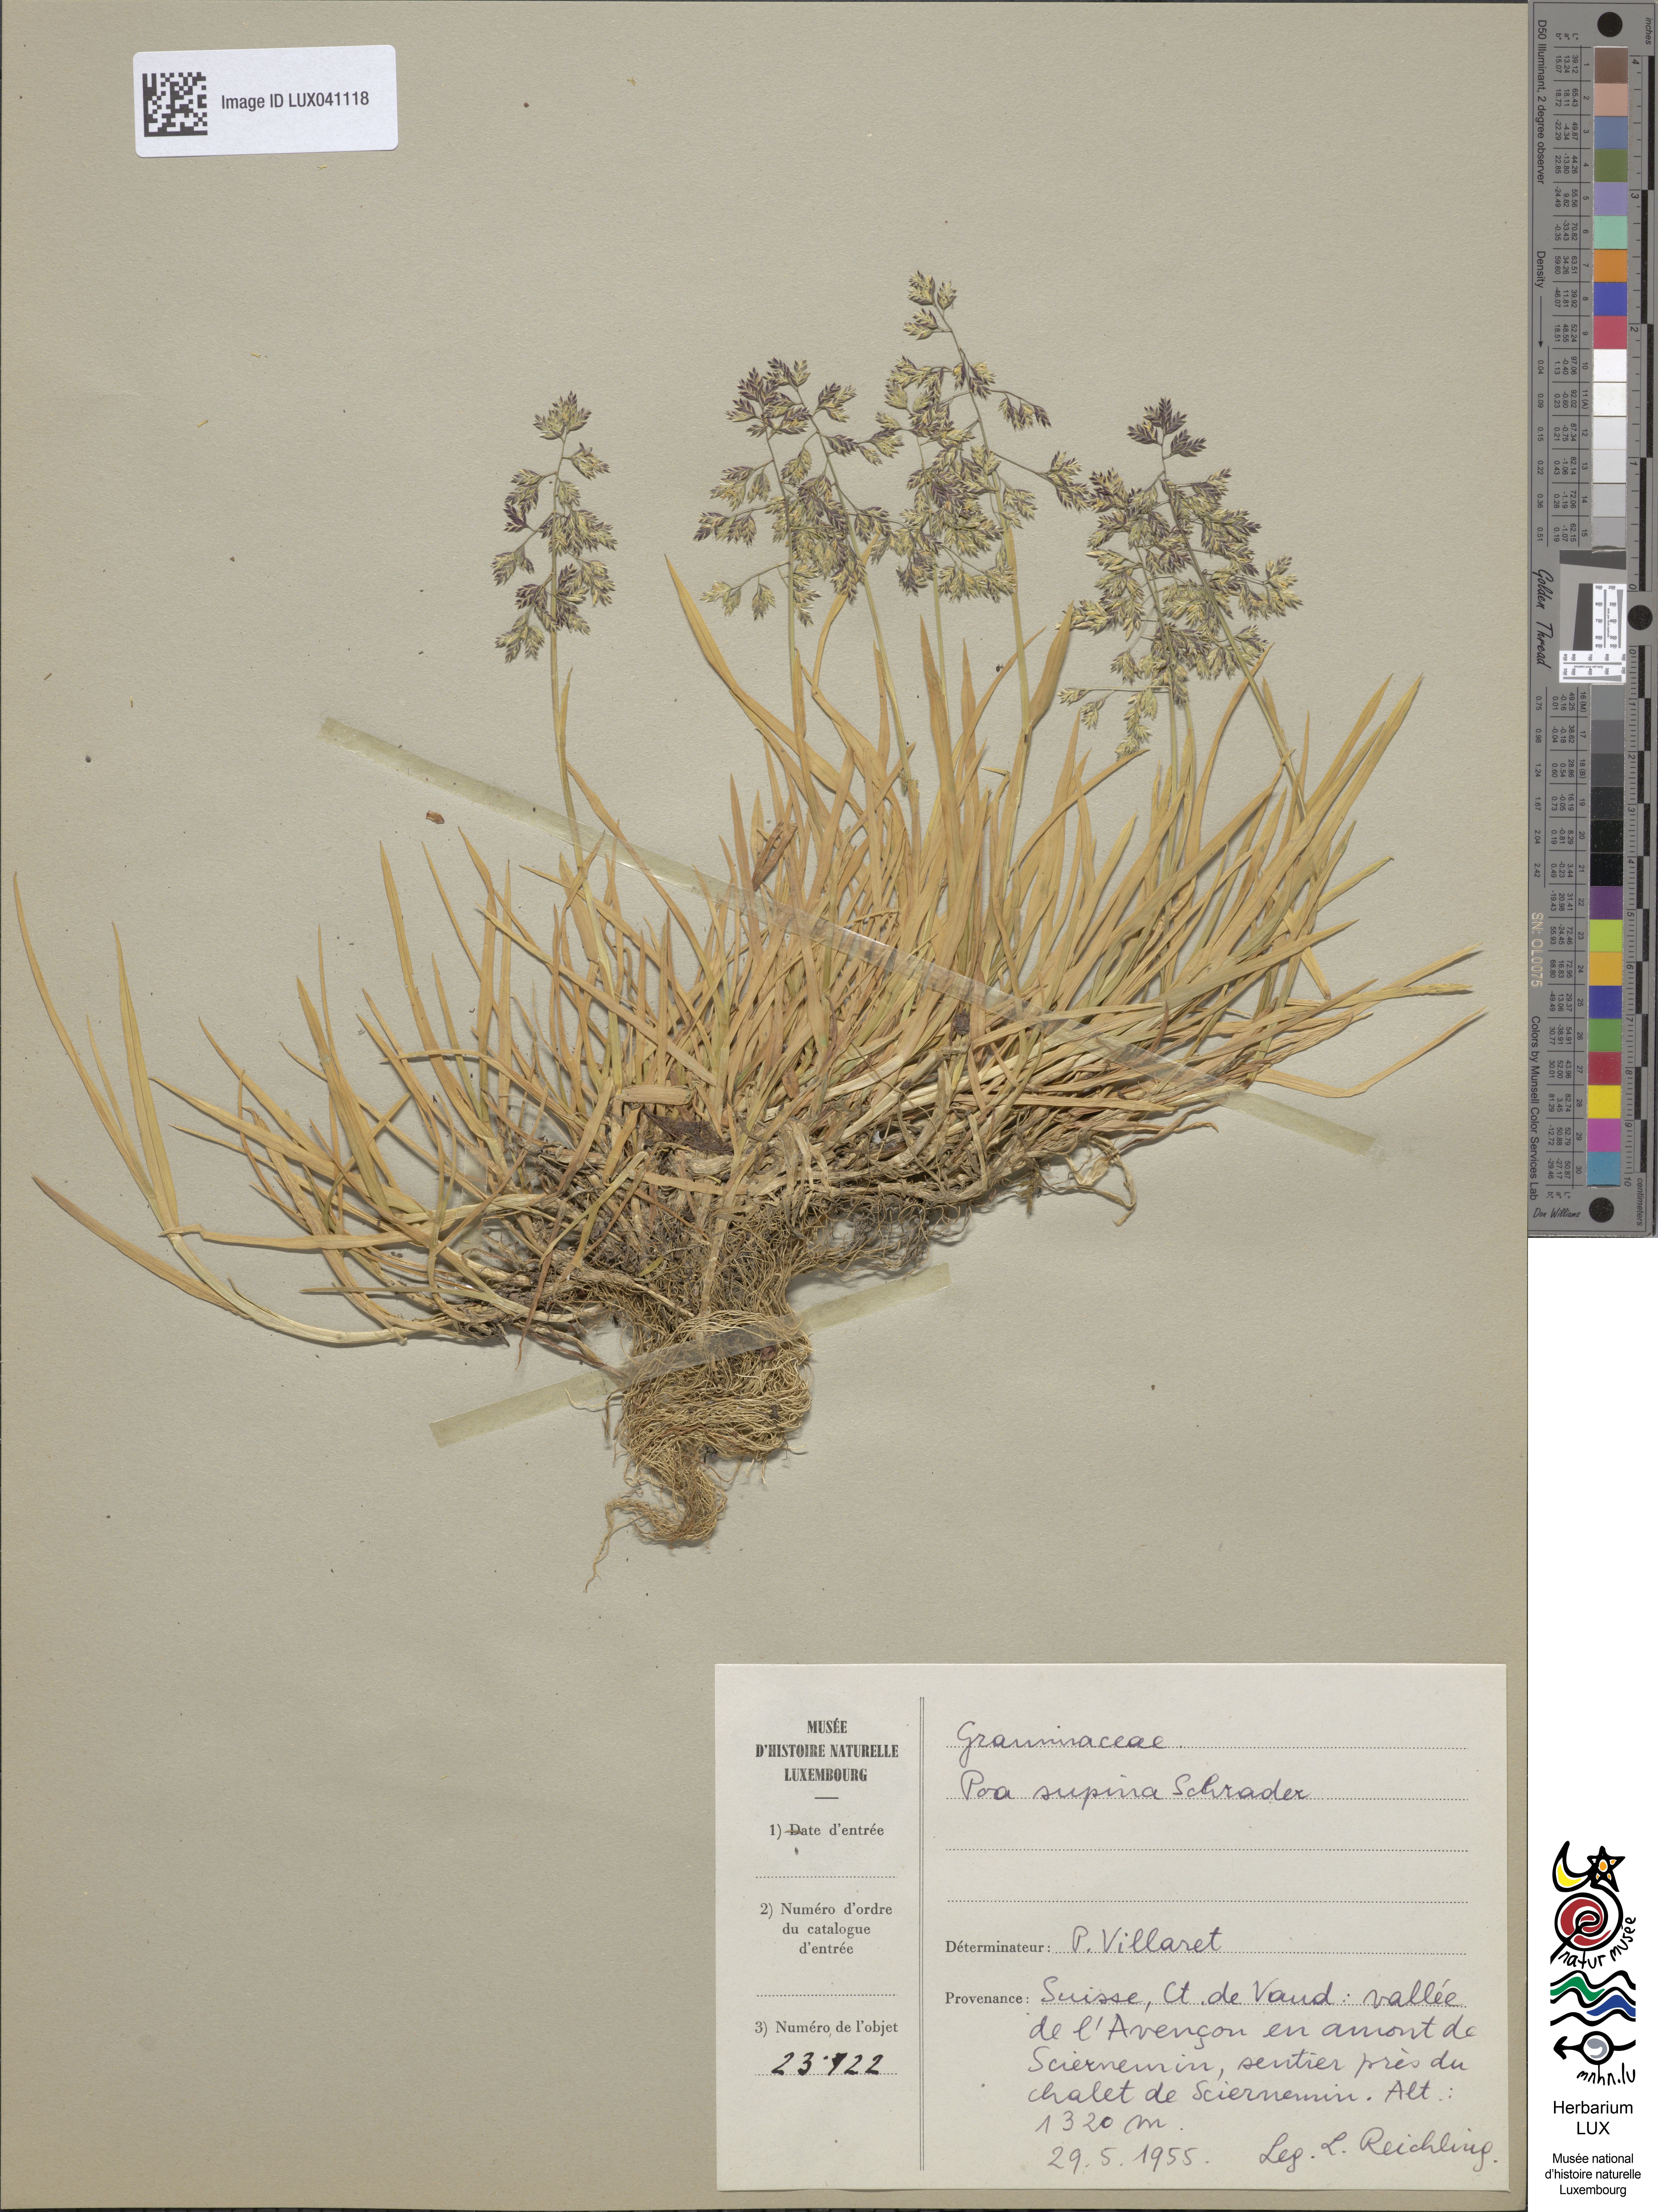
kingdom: Plantae
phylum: Tracheophyta
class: Liliopsida
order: Poales
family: Poaceae
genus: Poa
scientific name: Poa supina
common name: Supina bluegrass
